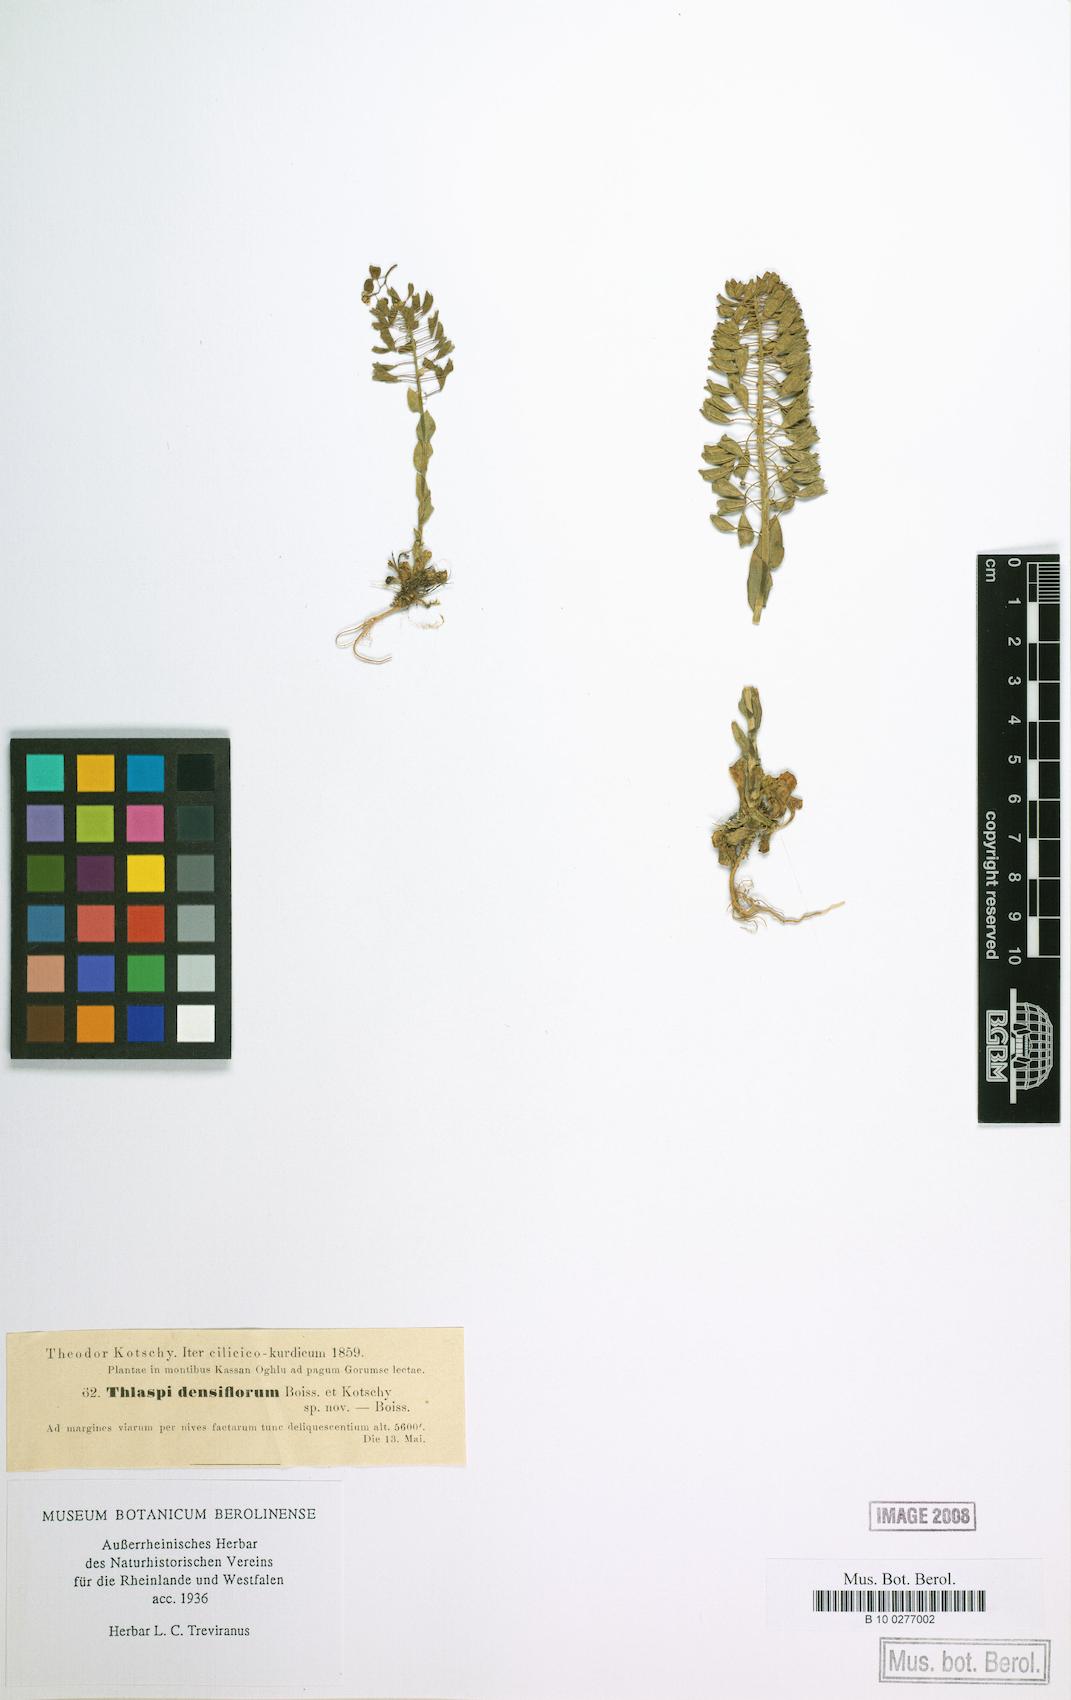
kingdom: Plantae
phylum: Tracheophyta
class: Magnoliopsida
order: Brassicales
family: Brassicaceae
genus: Noccaea
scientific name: Noccaea densiflora
